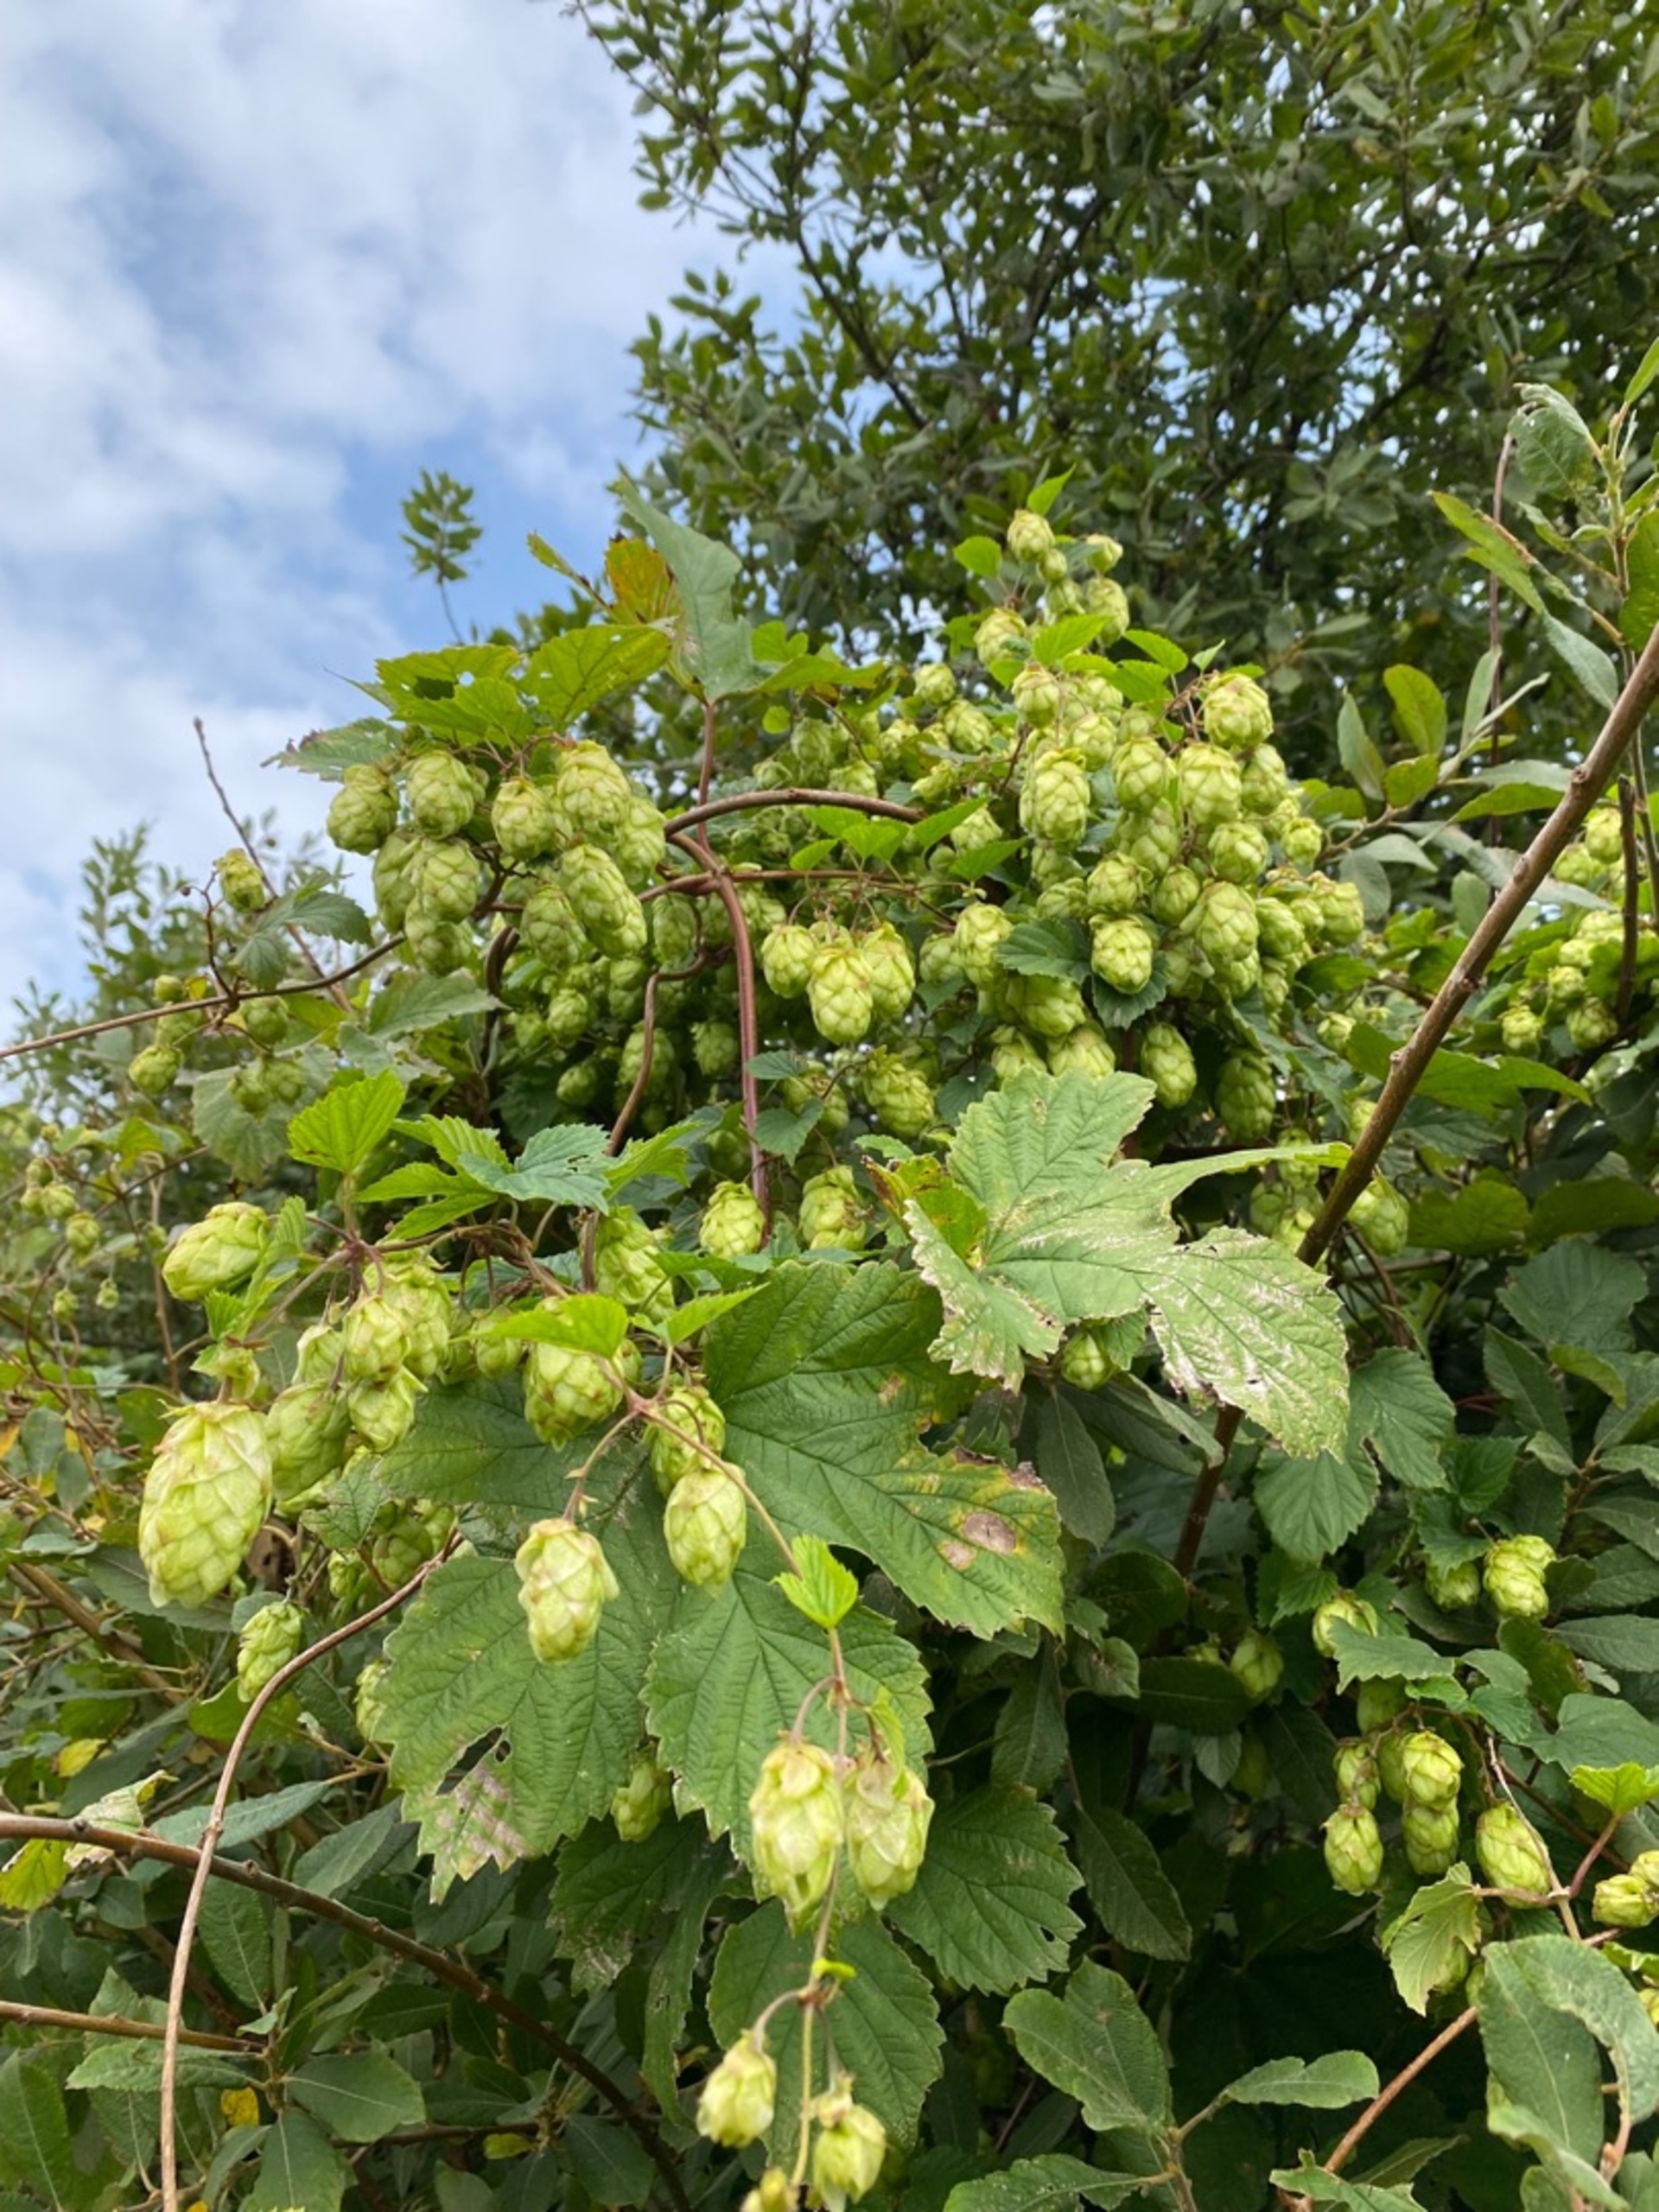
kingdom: Plantae
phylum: Tracheophyta
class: Magnoliopsida
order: Rosales
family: Cannabaceae
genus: Humulus
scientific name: Humulus lupulus
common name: Humle
